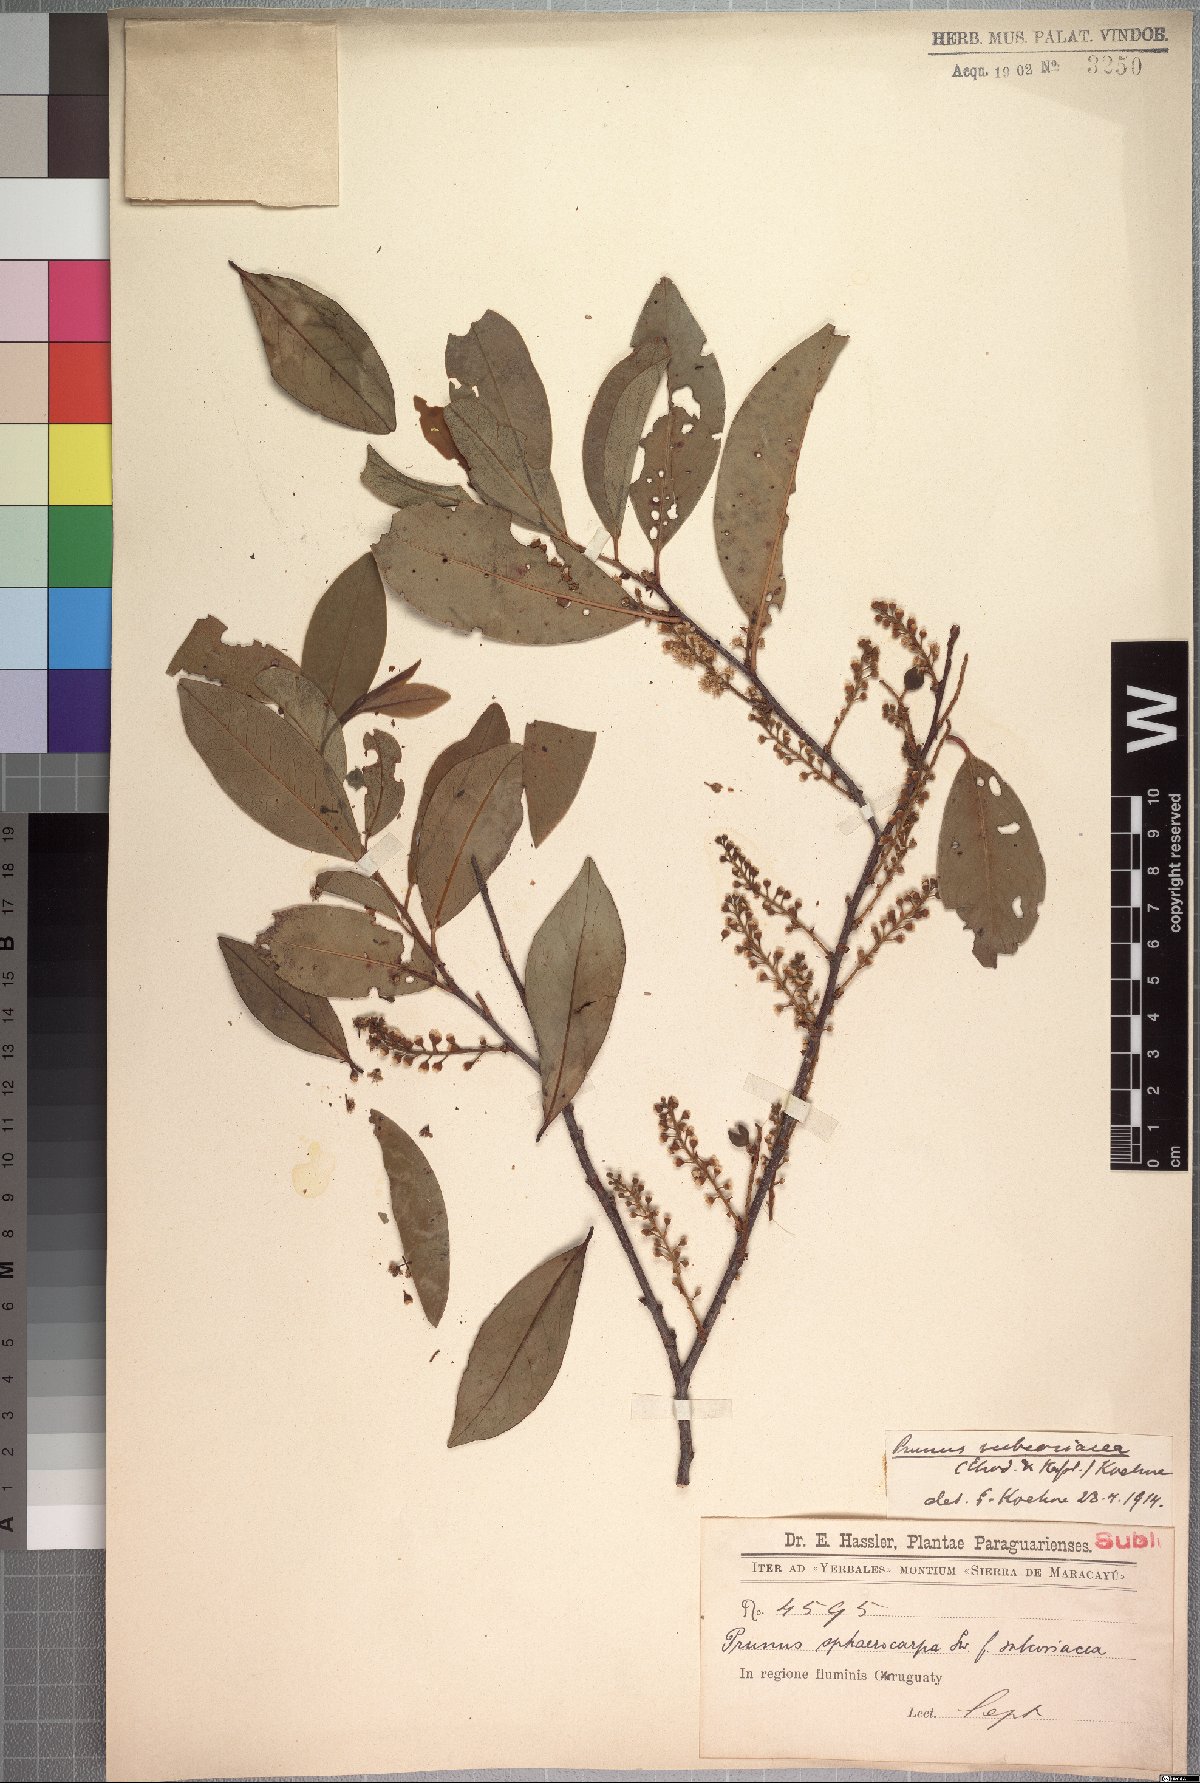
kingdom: Plantae
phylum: Tracheophyta
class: Magnoliopsida
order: Rosales
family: Rosaceae
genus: Prunus
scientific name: Prunus subcoriacea
